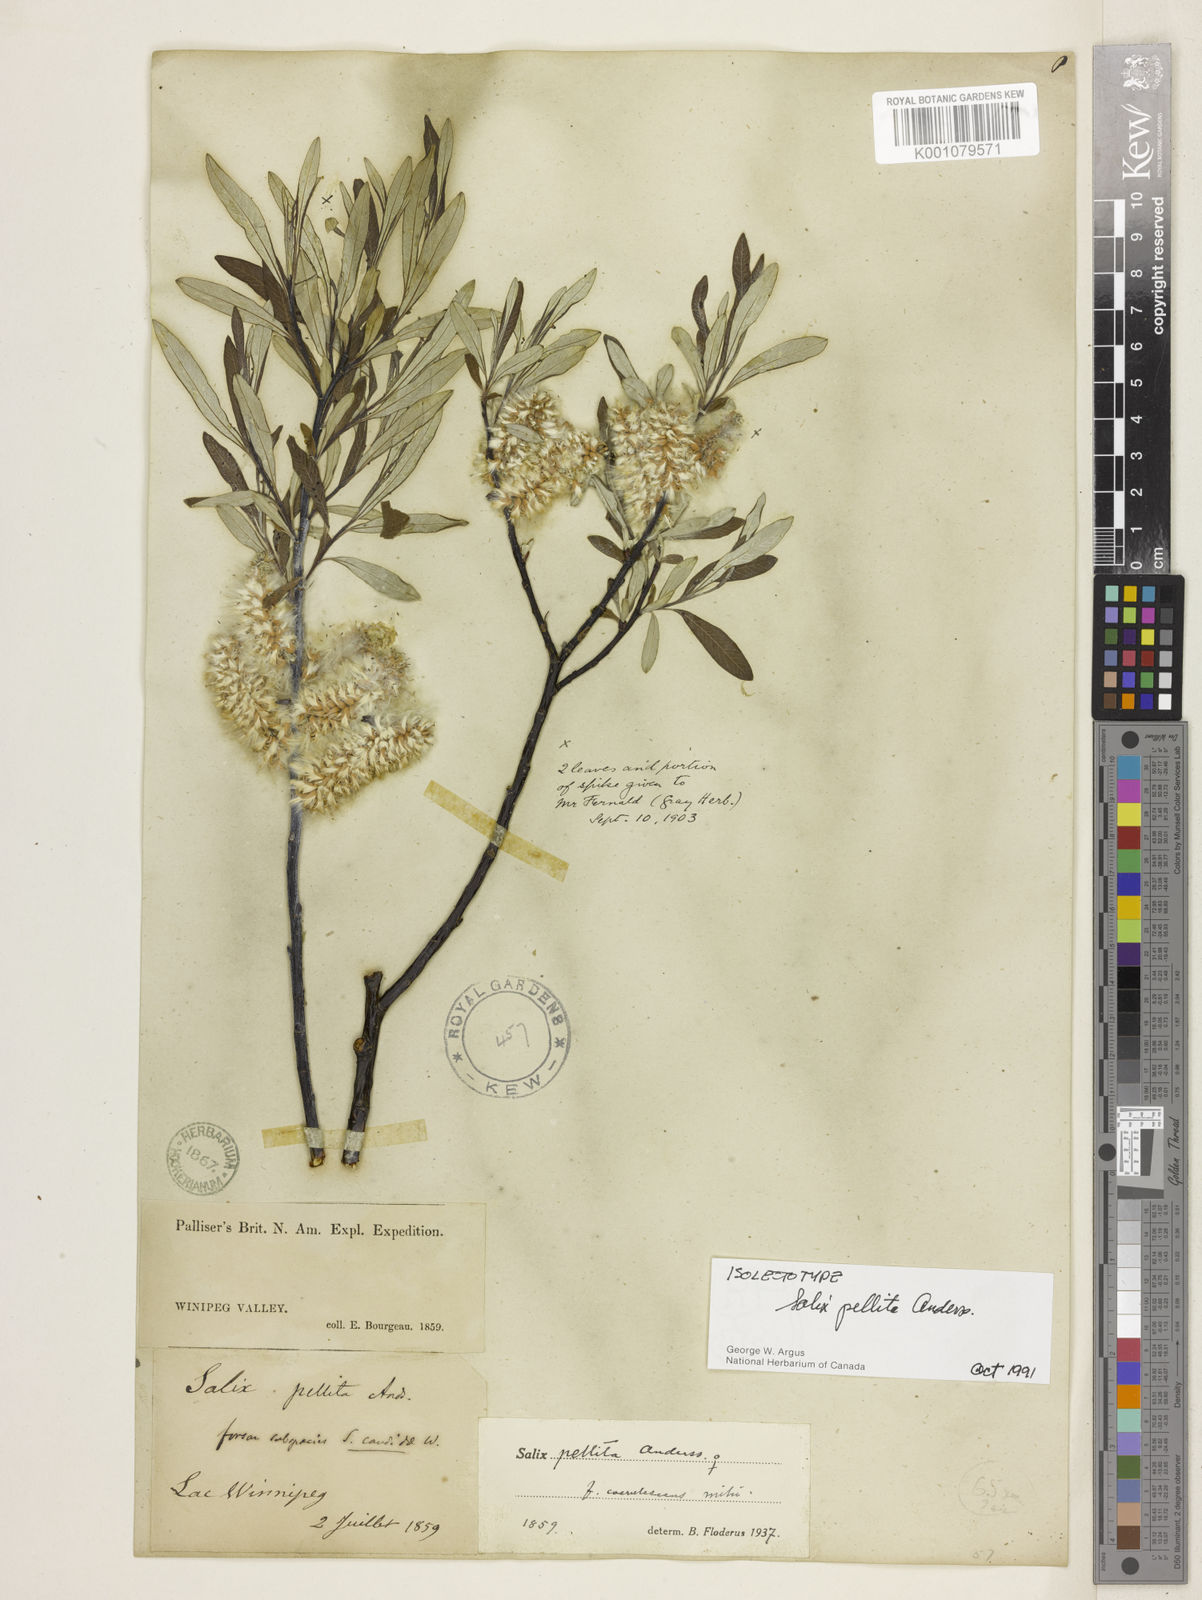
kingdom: Plantae
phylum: Tracheophyta
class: Magnoliopsida
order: Malpighiales
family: Salicaceae
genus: Salix
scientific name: Salix pellita
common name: Satiny willow
